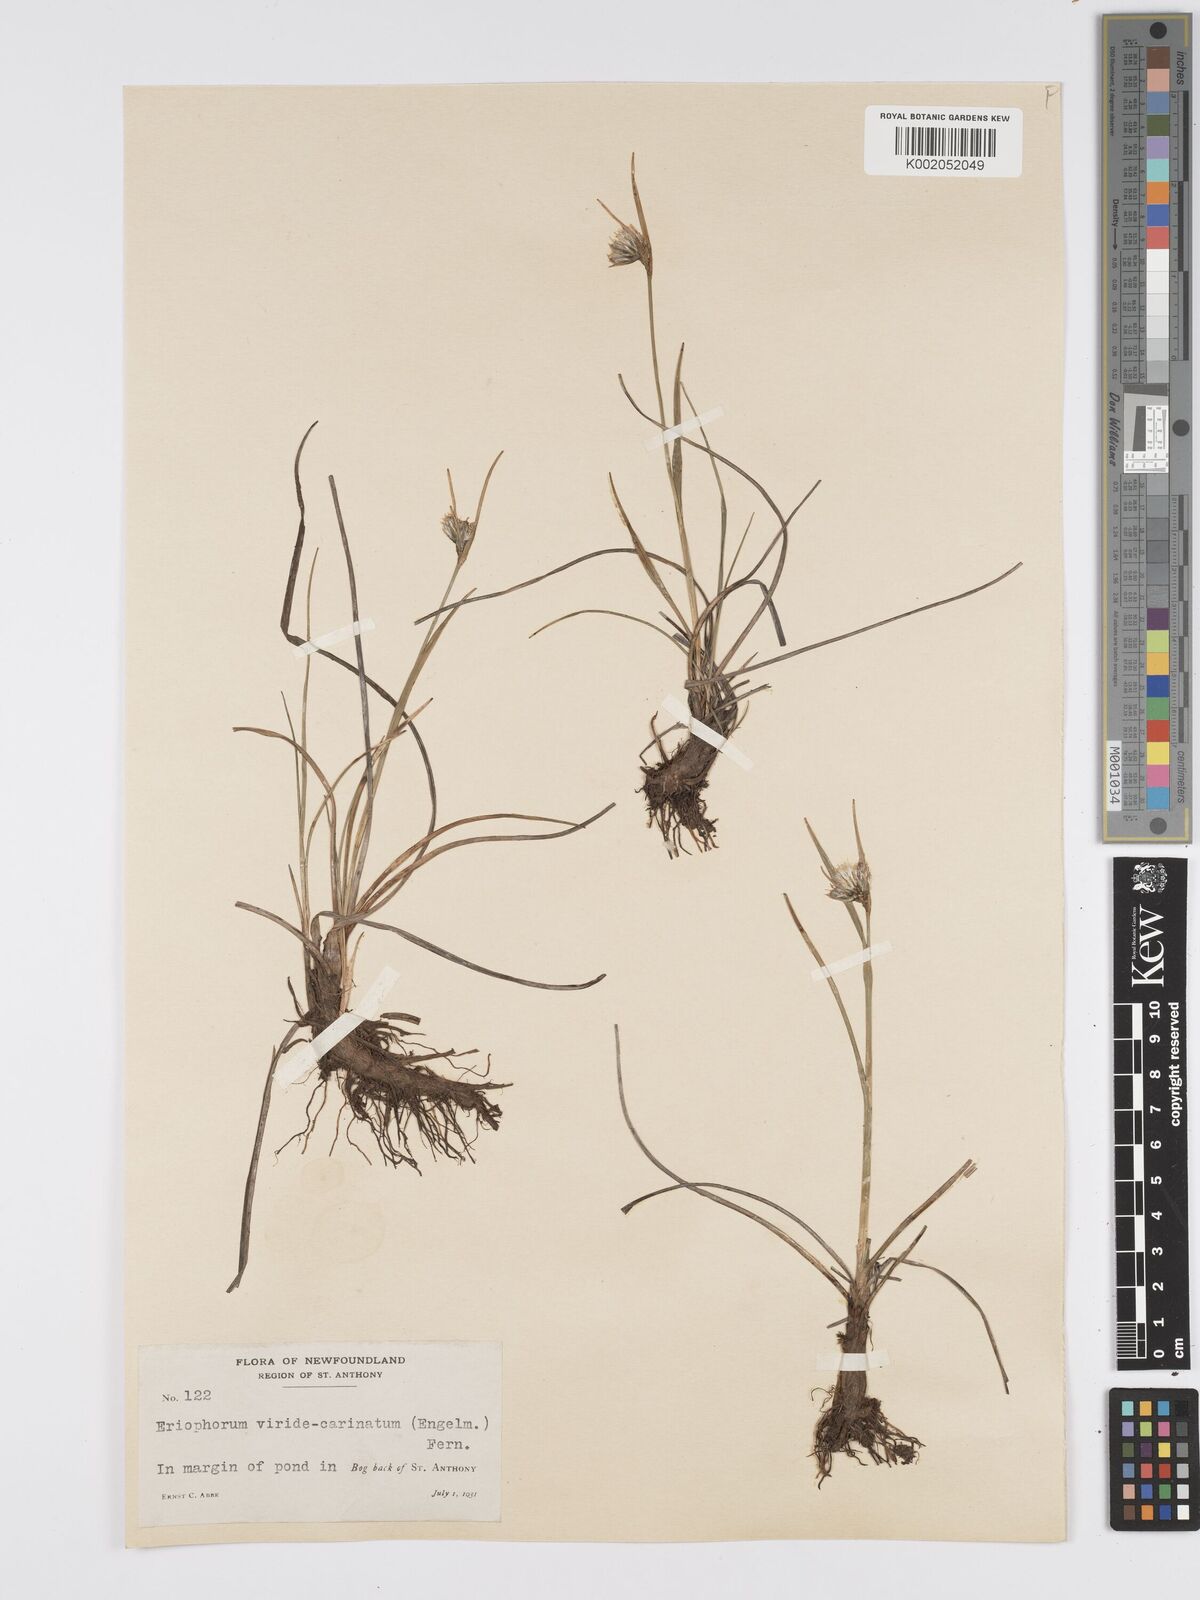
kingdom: Plantae
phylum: Tracheophyta
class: Liliopsida
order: Poales
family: Cyperaceae
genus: Eriophorum
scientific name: Eriophorum viridicarinatum
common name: Green-keeled cottongrass
